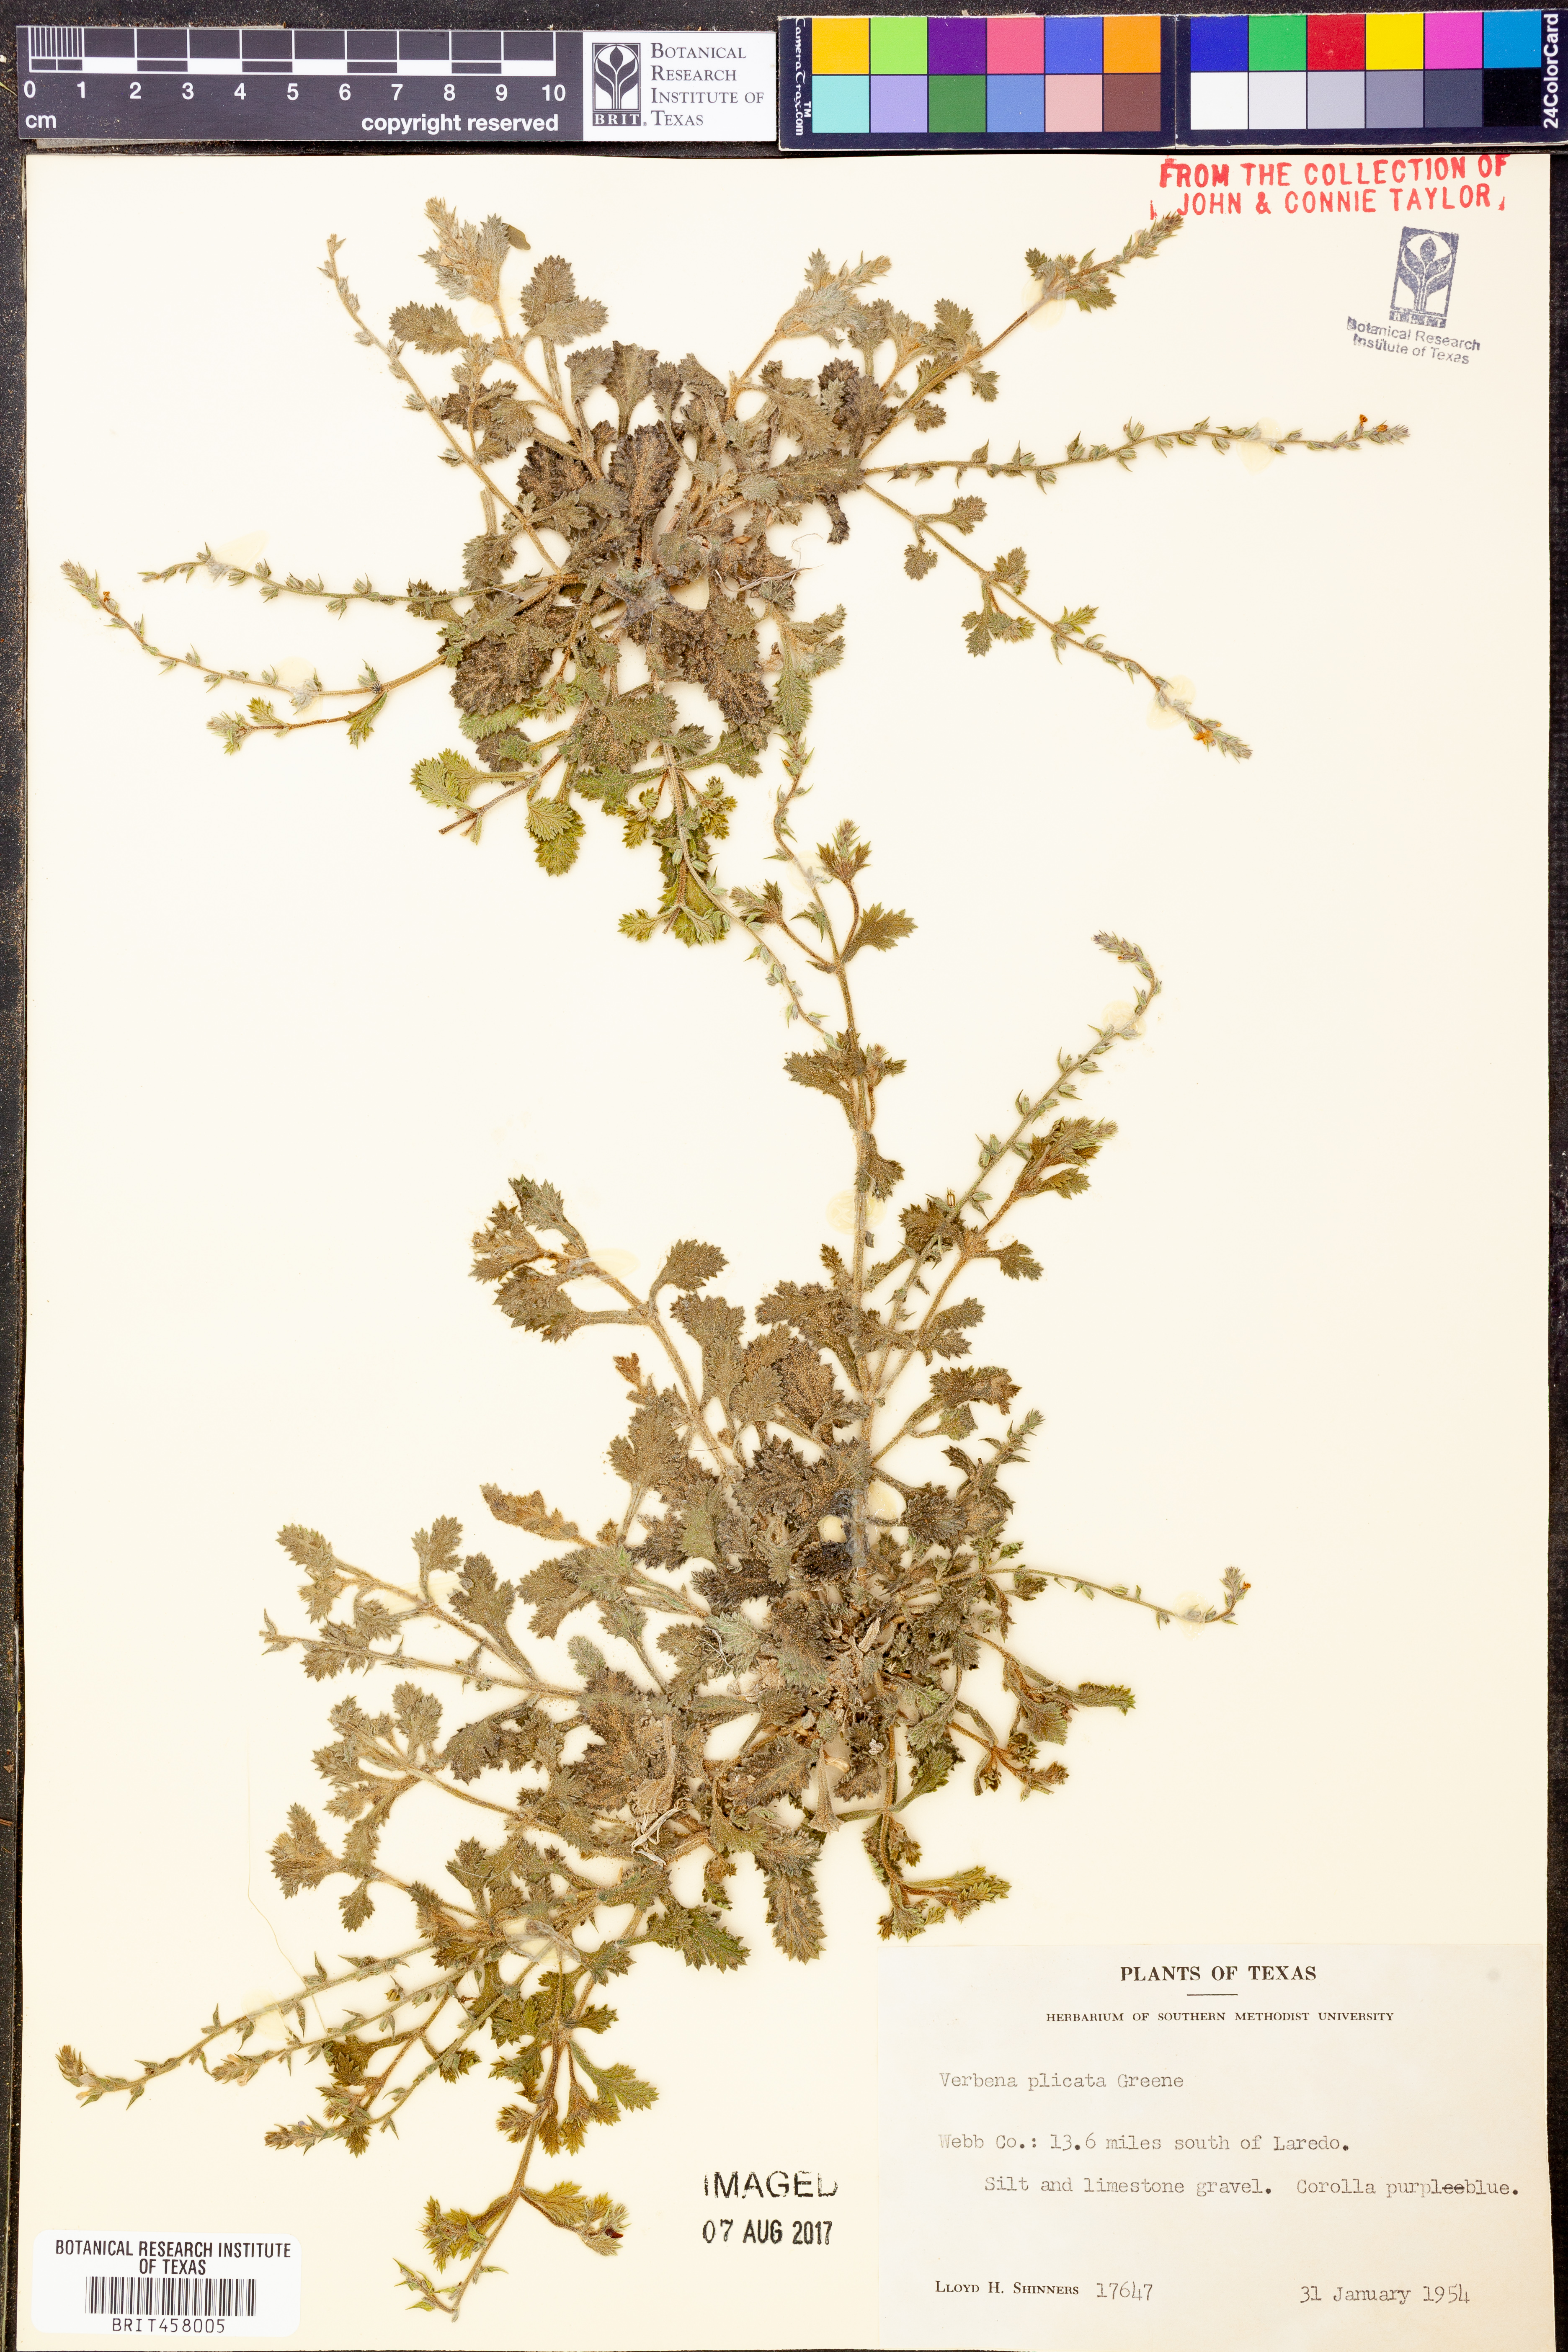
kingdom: Plantae
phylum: Tracheophyta
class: Magnoliopsida
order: Lamiales
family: Verbenaceae
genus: Verbena
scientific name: Verbena plicata
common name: Fan-leaf vervain
